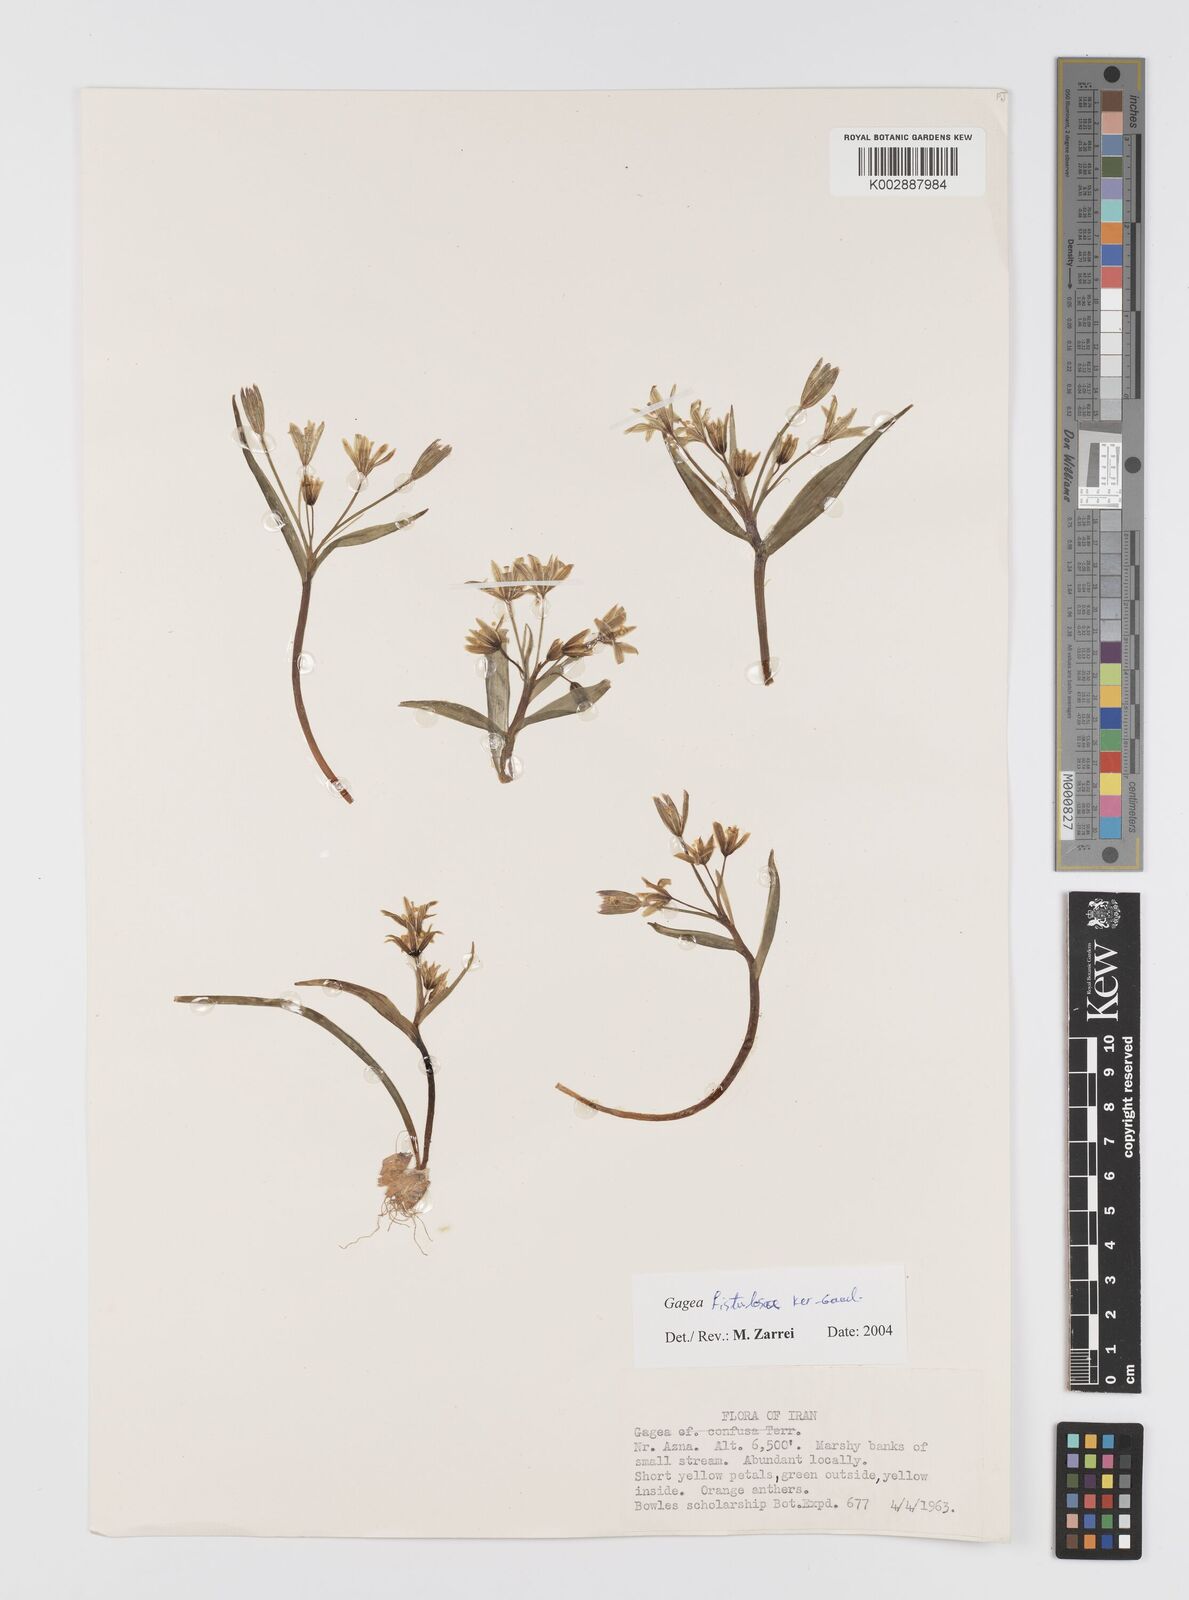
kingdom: Plantae
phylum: Tracheophyta
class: Liliopsida
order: Liliales
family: Liliaceae
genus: Gagea
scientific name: Gagea bohemica
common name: Early star-of-bethlehem
